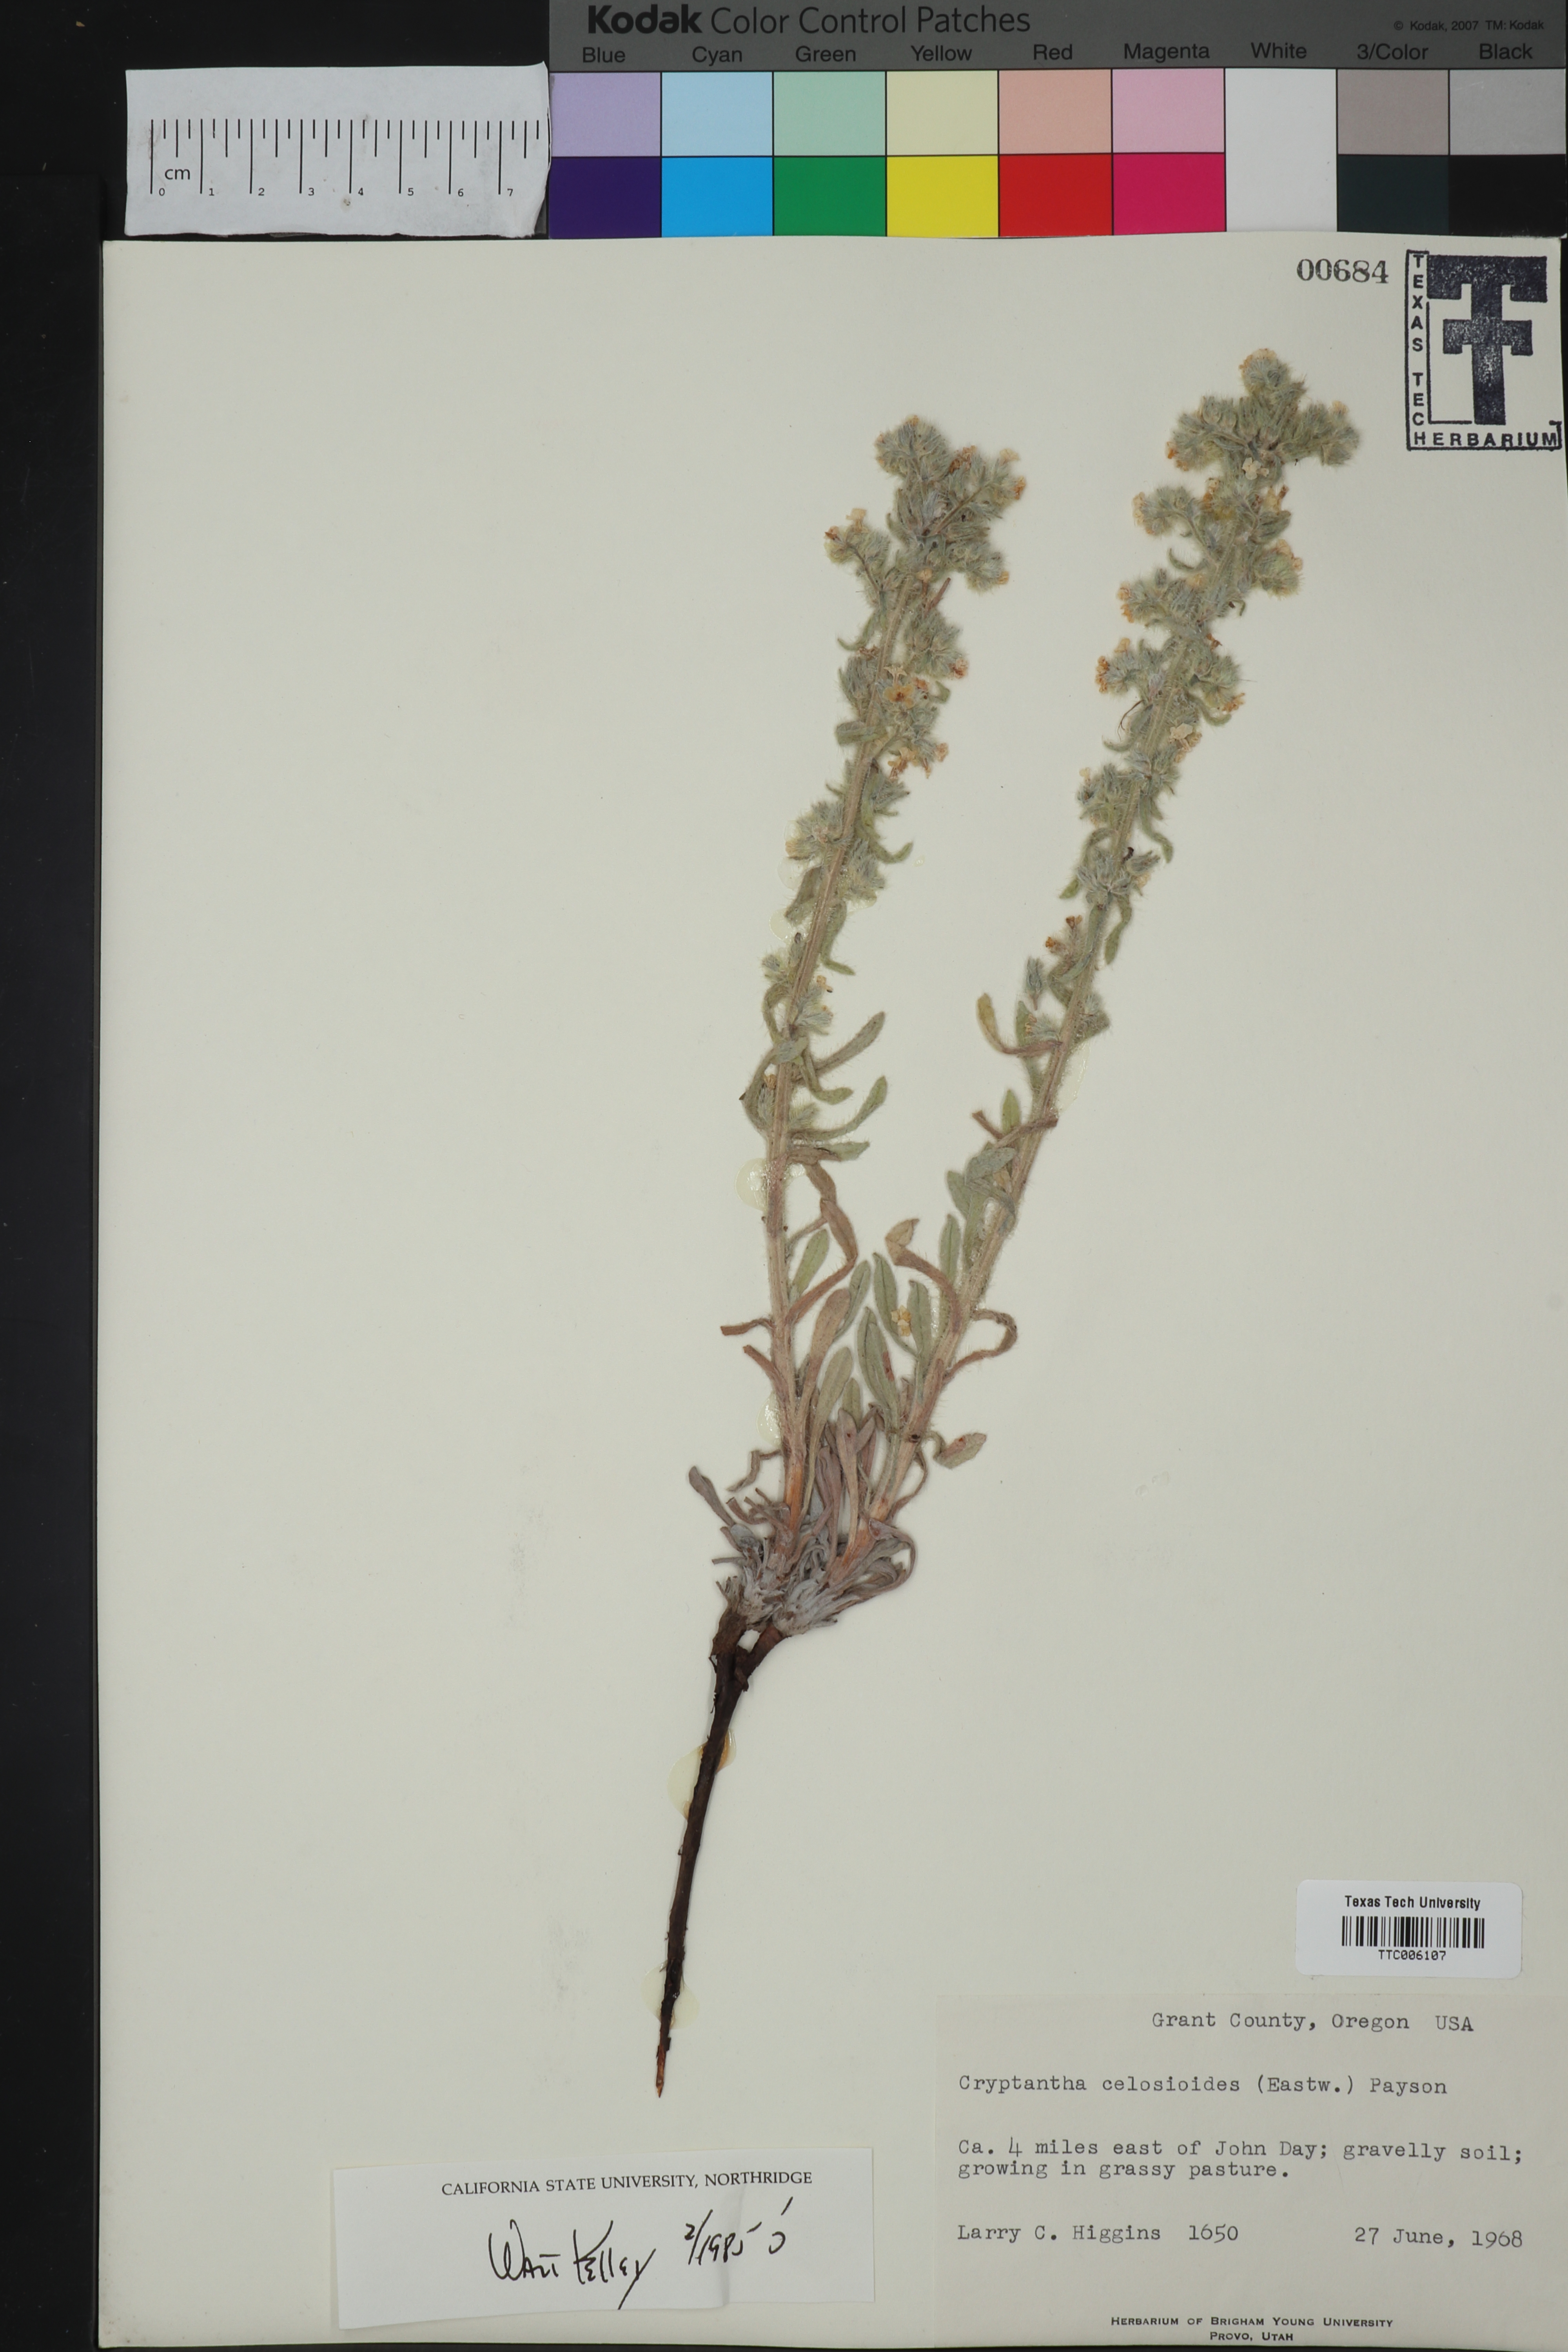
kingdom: Plantae
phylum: Tracheophyta
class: Magnoliopsida
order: Boraginales
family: Boraginaceae
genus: Oreocarya
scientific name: Oreocarya glomerata
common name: Macoun's cryptantha
